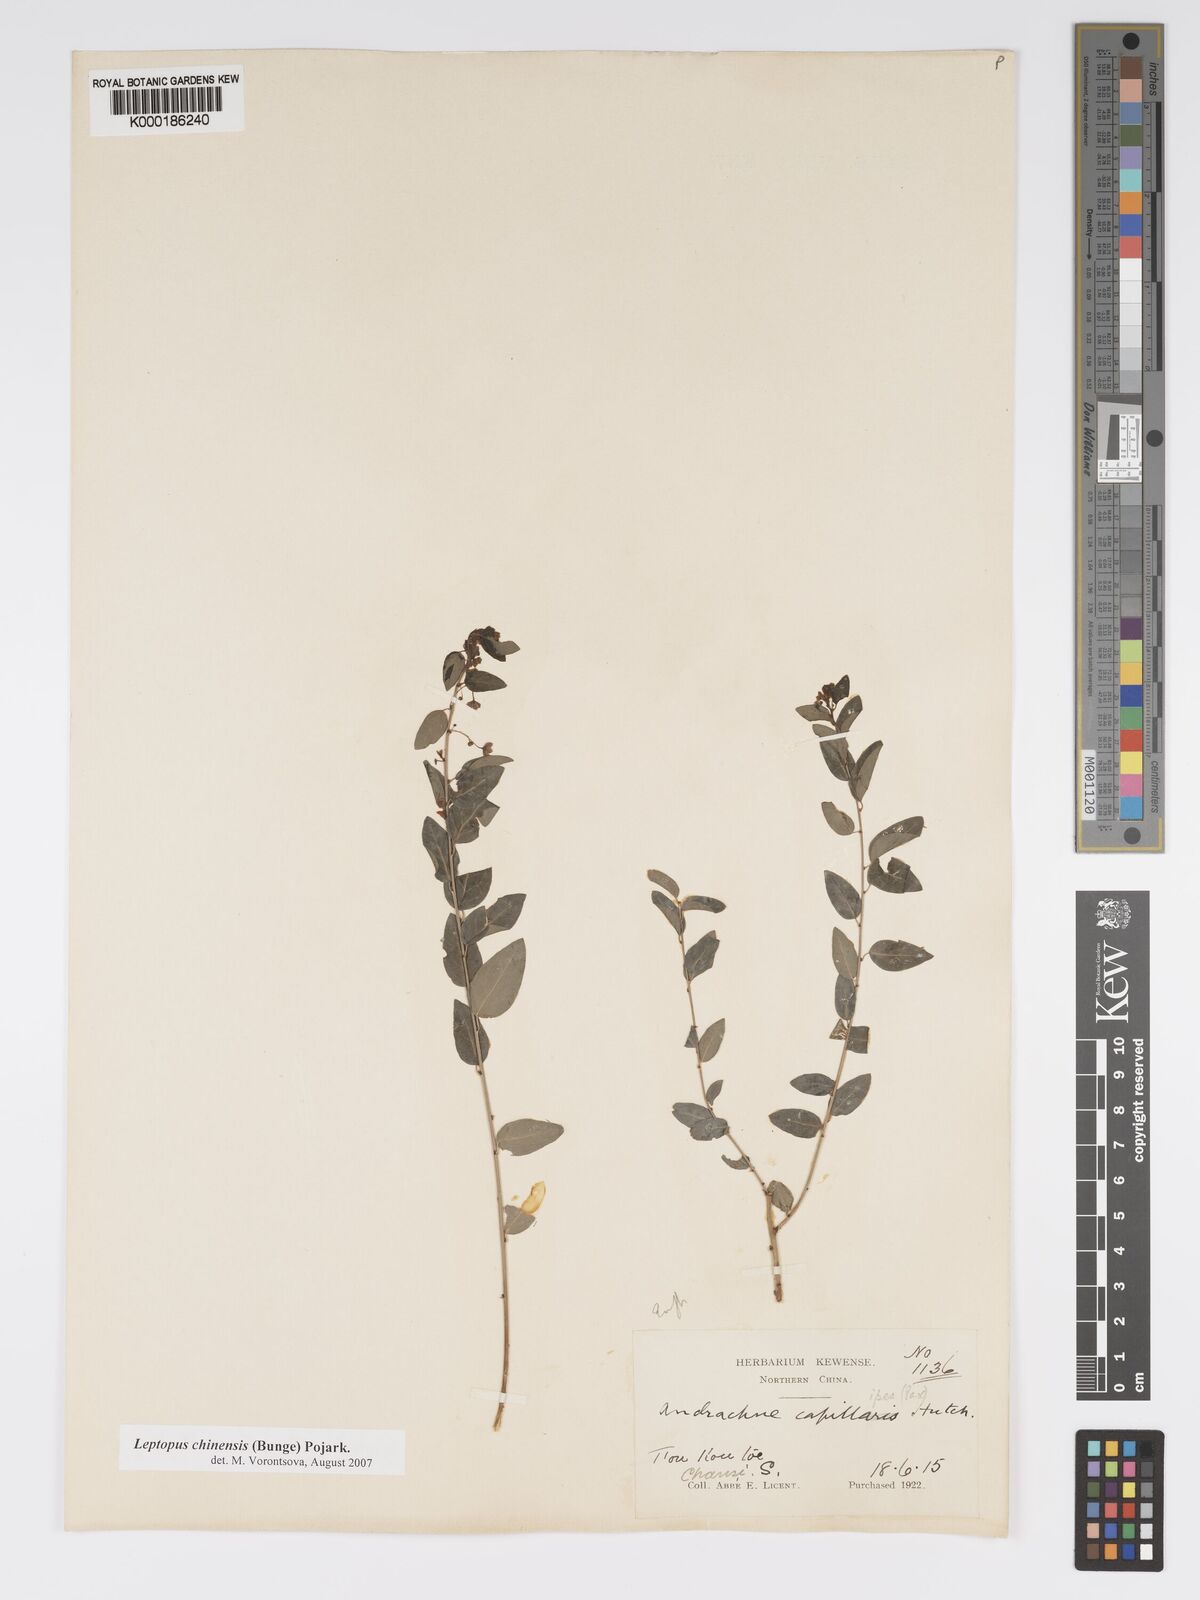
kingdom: Plantae
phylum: Tracheophyta
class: Magnoliopsida
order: Malpighiales
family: Phyllanthaceae
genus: Leptopus
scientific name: Leptopus chinensis
